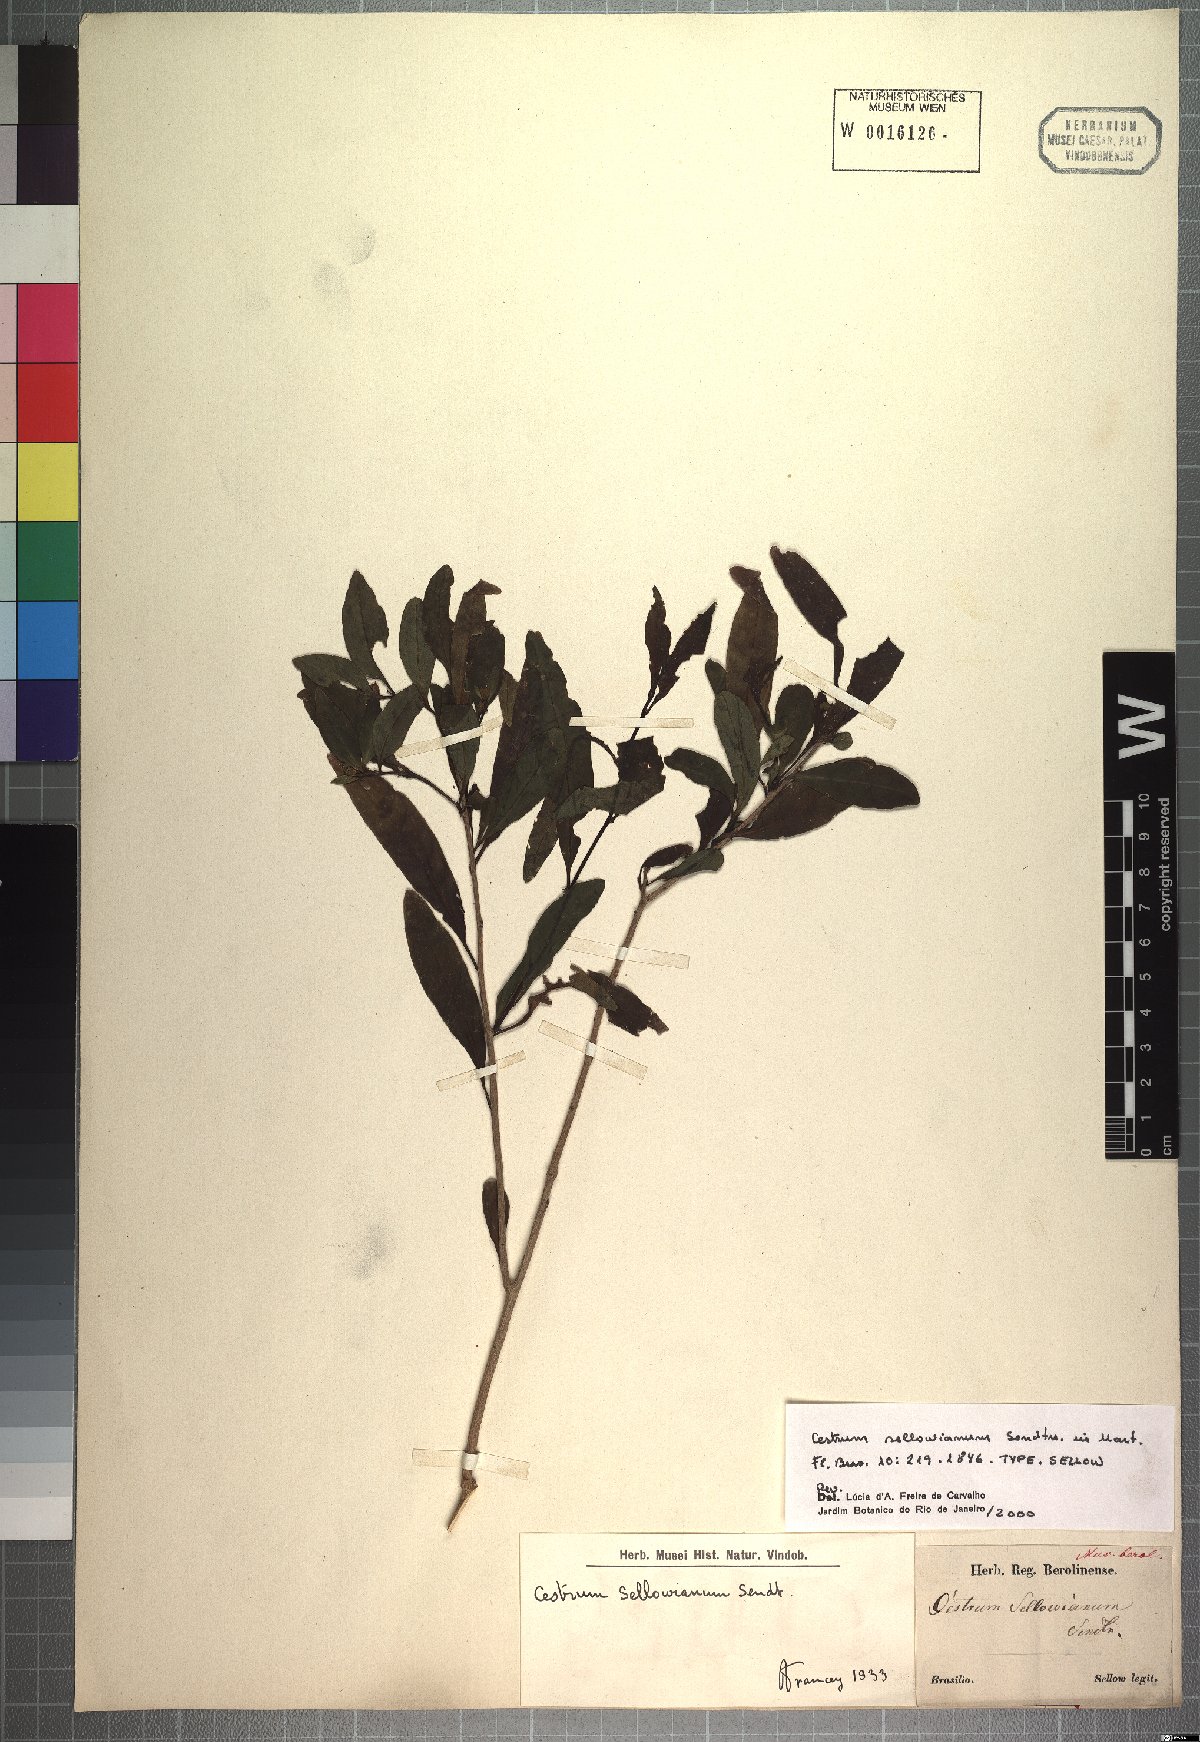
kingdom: Plantae
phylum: Tracheophyta
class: Magnoliopsida
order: Solanales
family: Solanaceae
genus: Cestrum
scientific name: Cestrum euanthes
